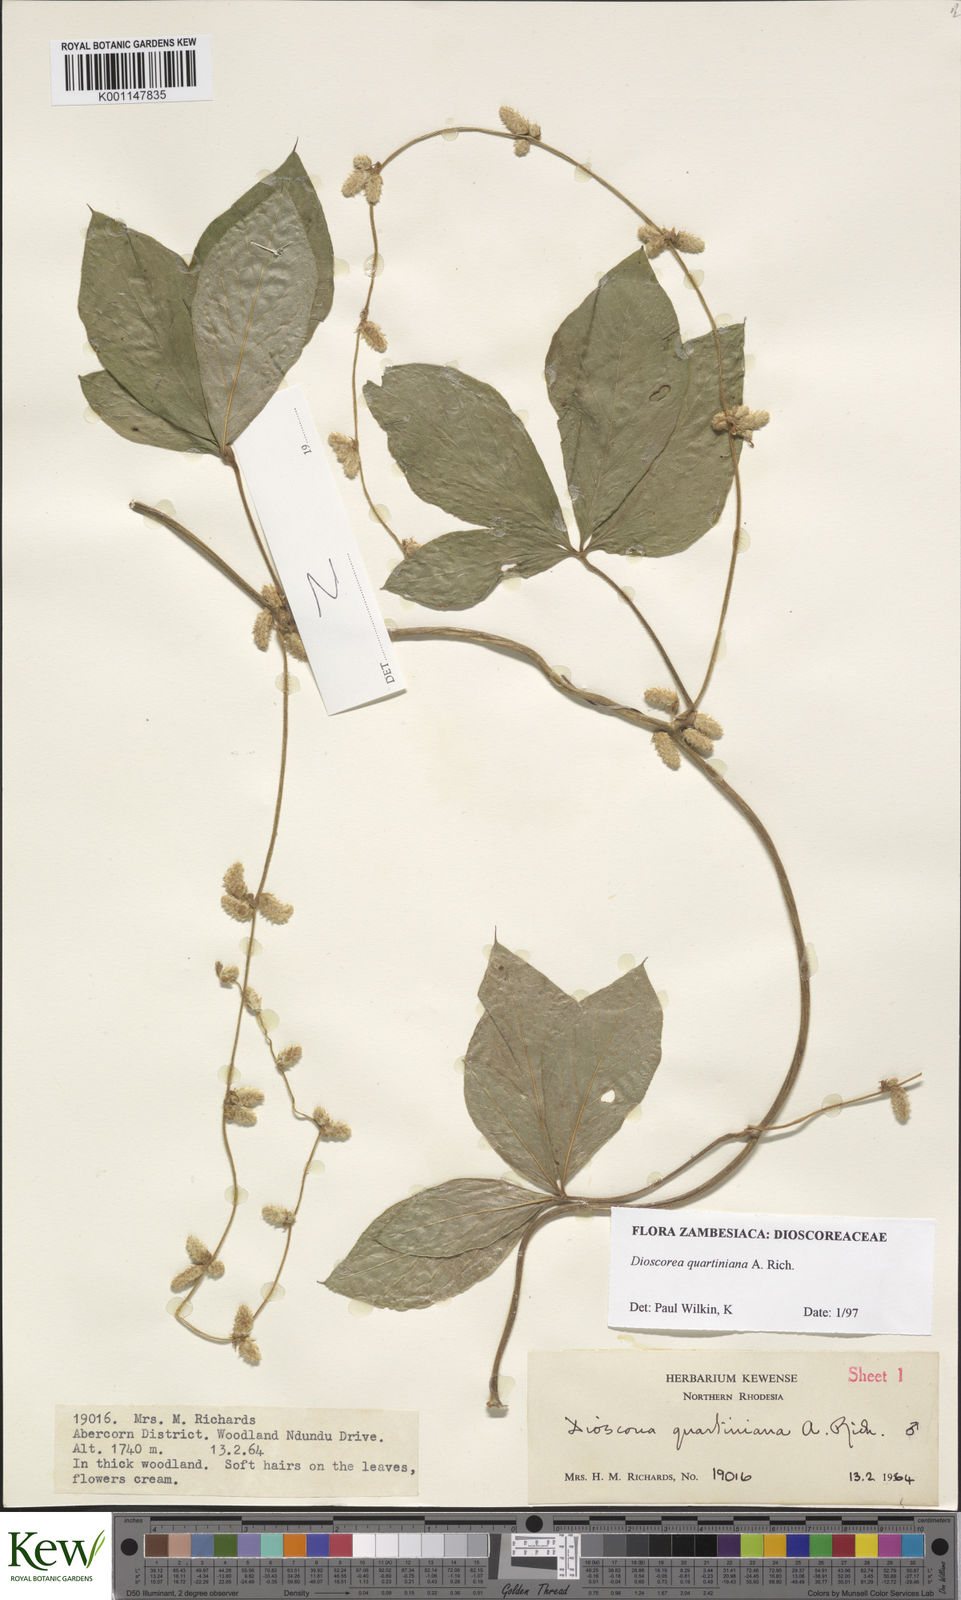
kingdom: Plantae
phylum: Tracheophyta
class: Liliopsida
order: Dioscoreales
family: Dioscoreaceae
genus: Dioscorea
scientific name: Dioscorea quartiniana
